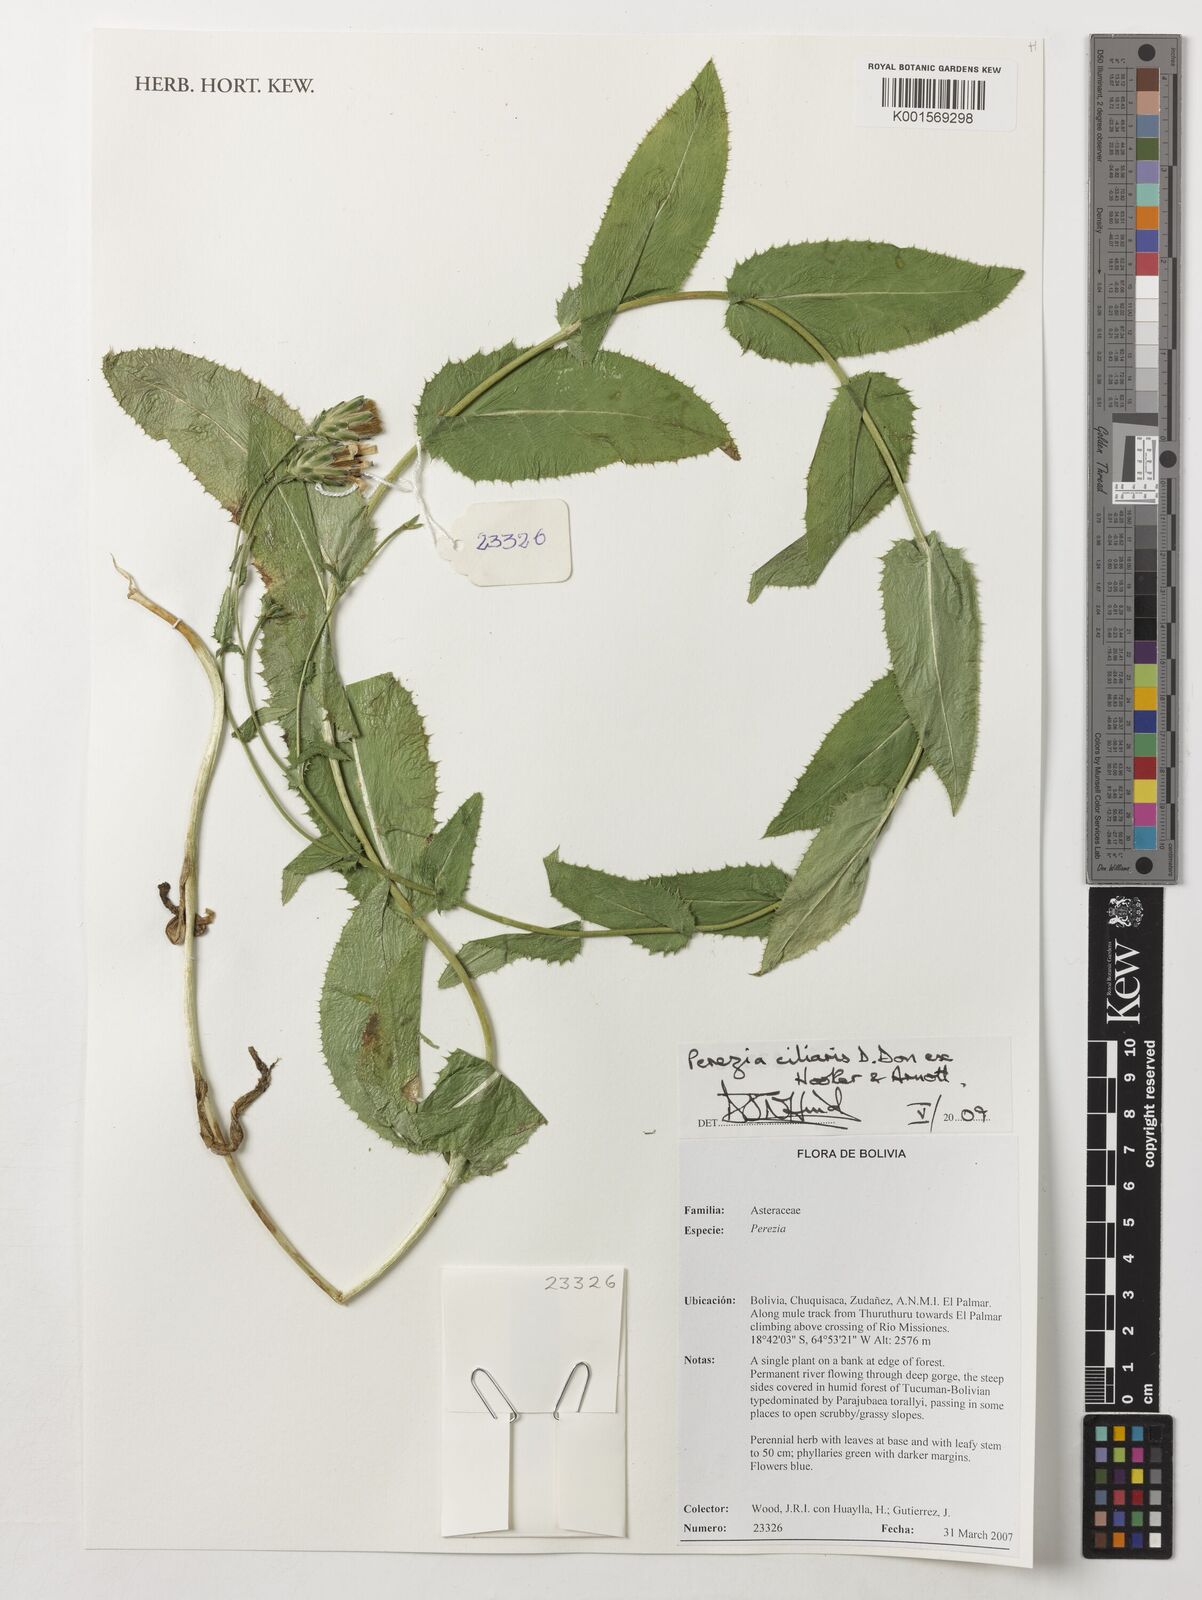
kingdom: Plantae
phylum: Tracheophyta
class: Magnoliopsida
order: Asterales
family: Asteraceae
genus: Perezia
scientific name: Perezia pungens
